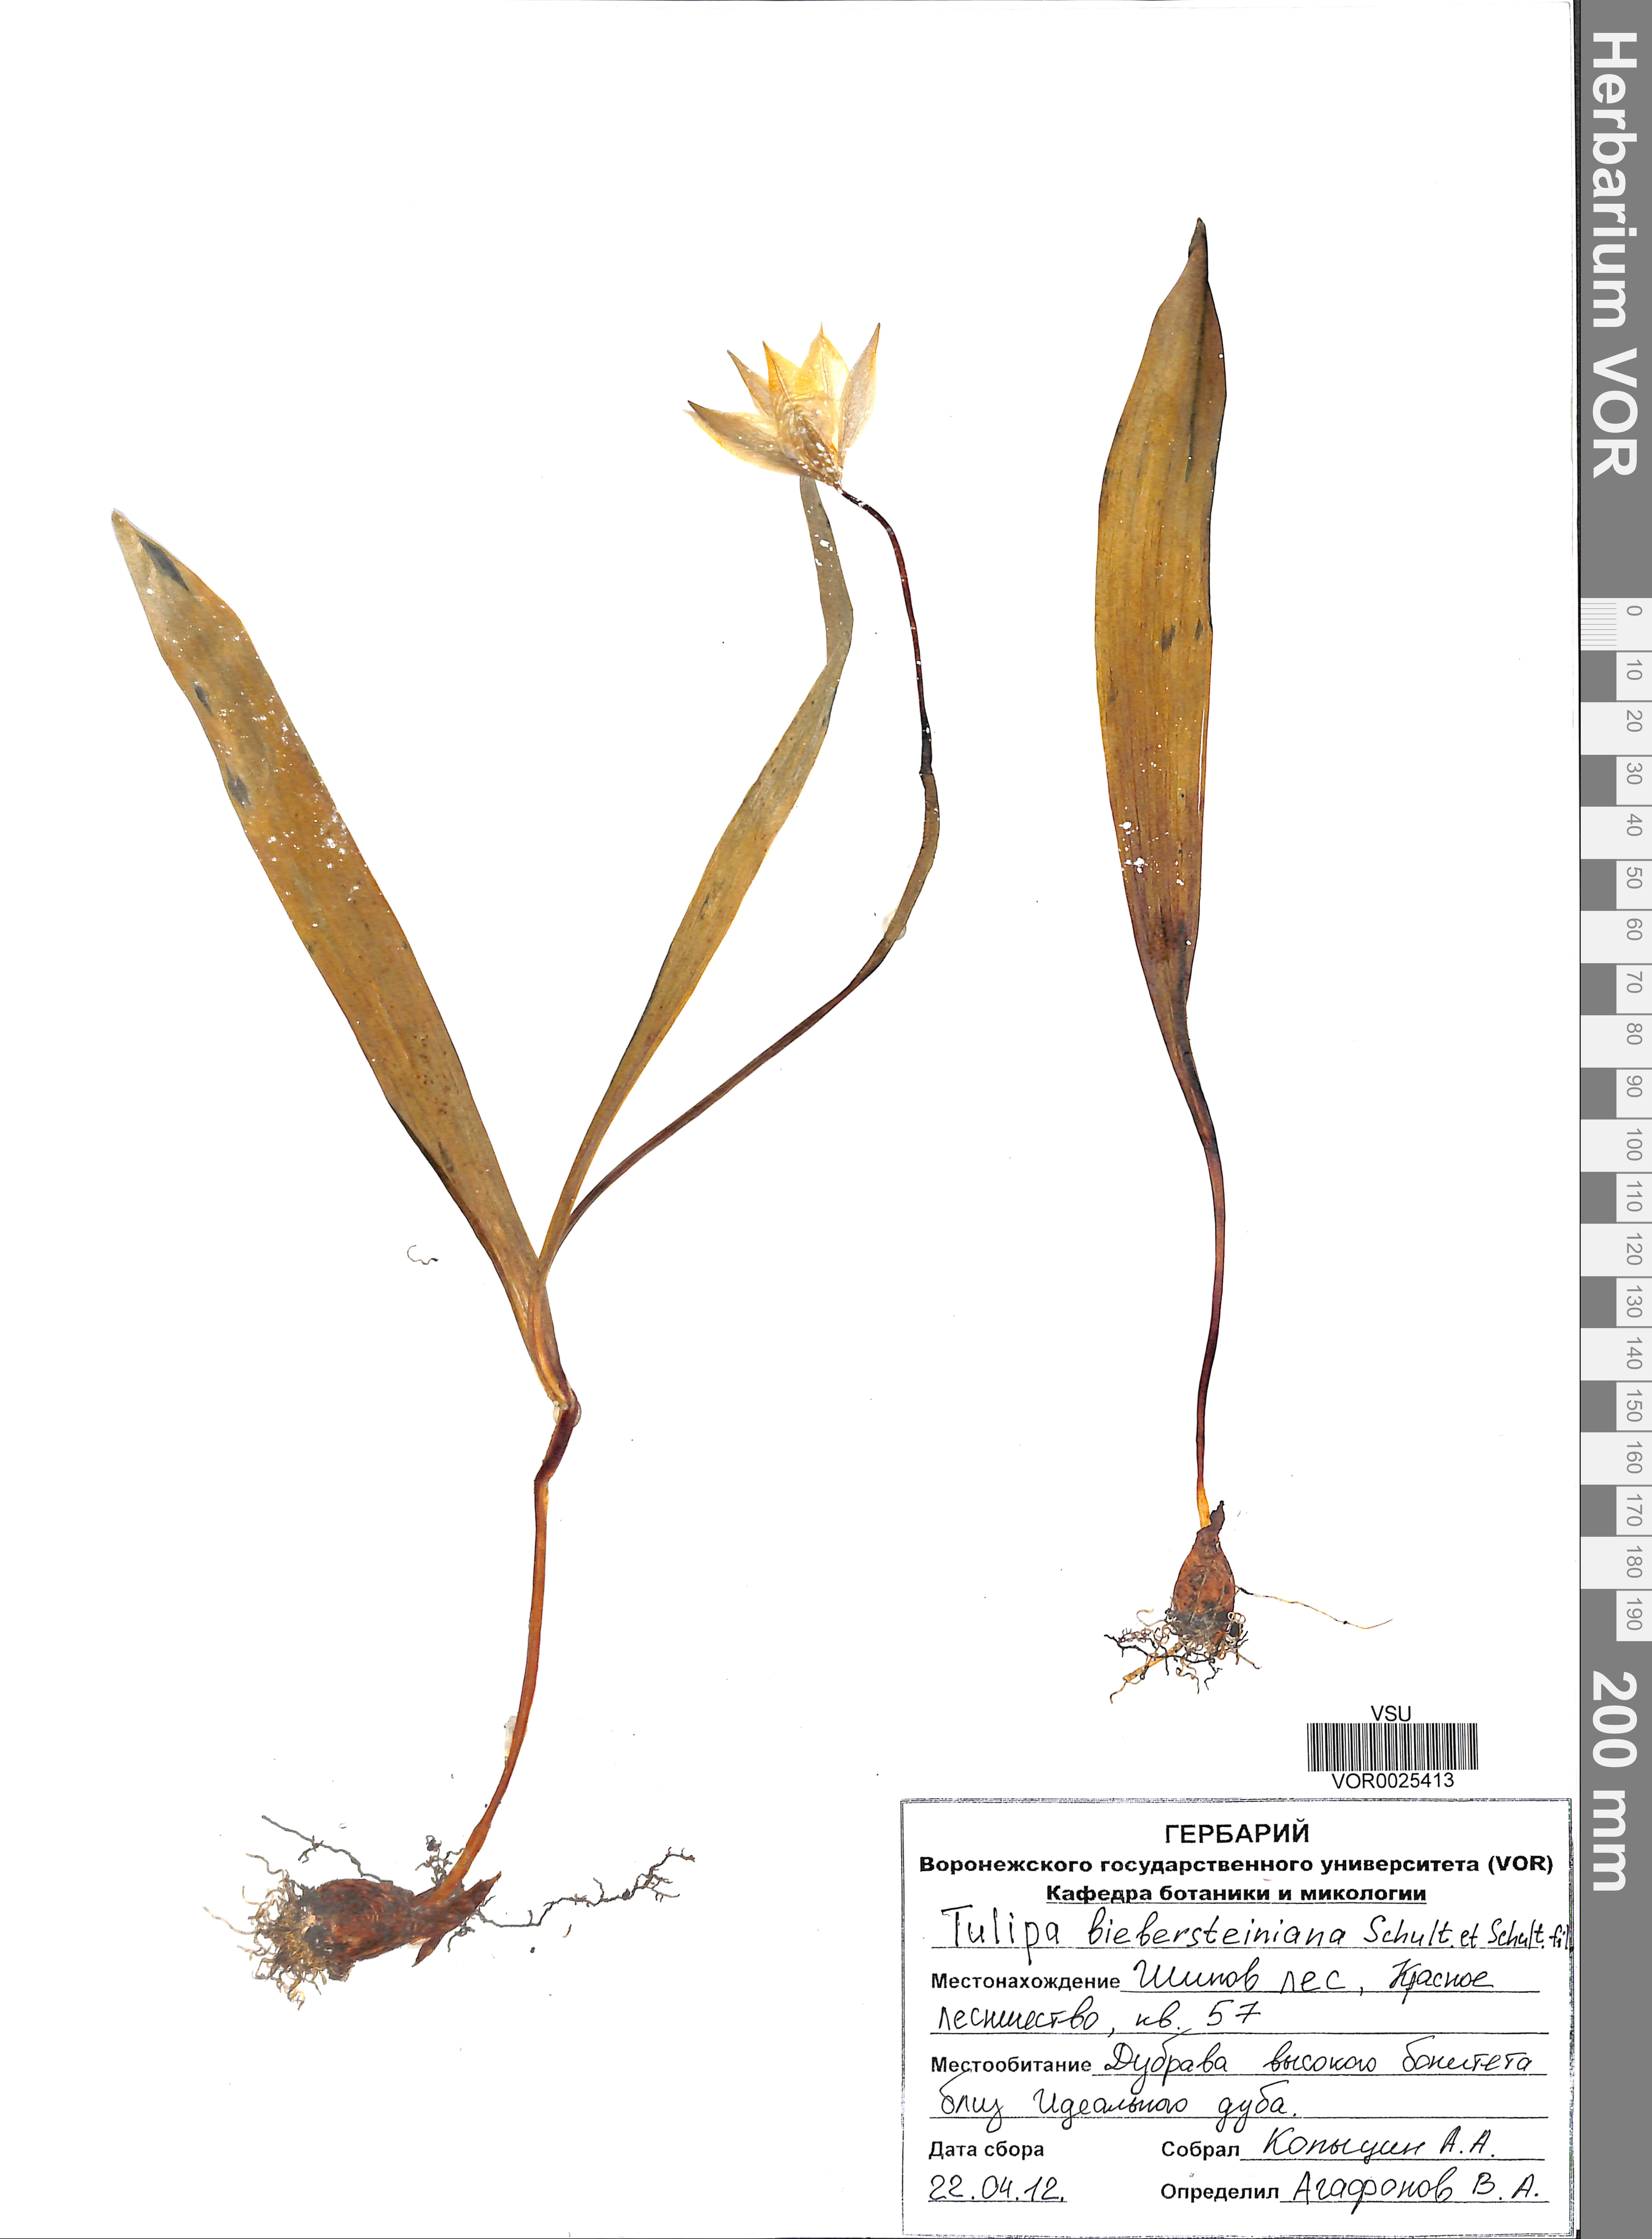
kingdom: Plantae
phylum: Tracheophyta
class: Liliopsida
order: Liliales
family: Liliaceae
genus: Tulipa
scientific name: Tulipa sylvestris
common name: Wild tulip
